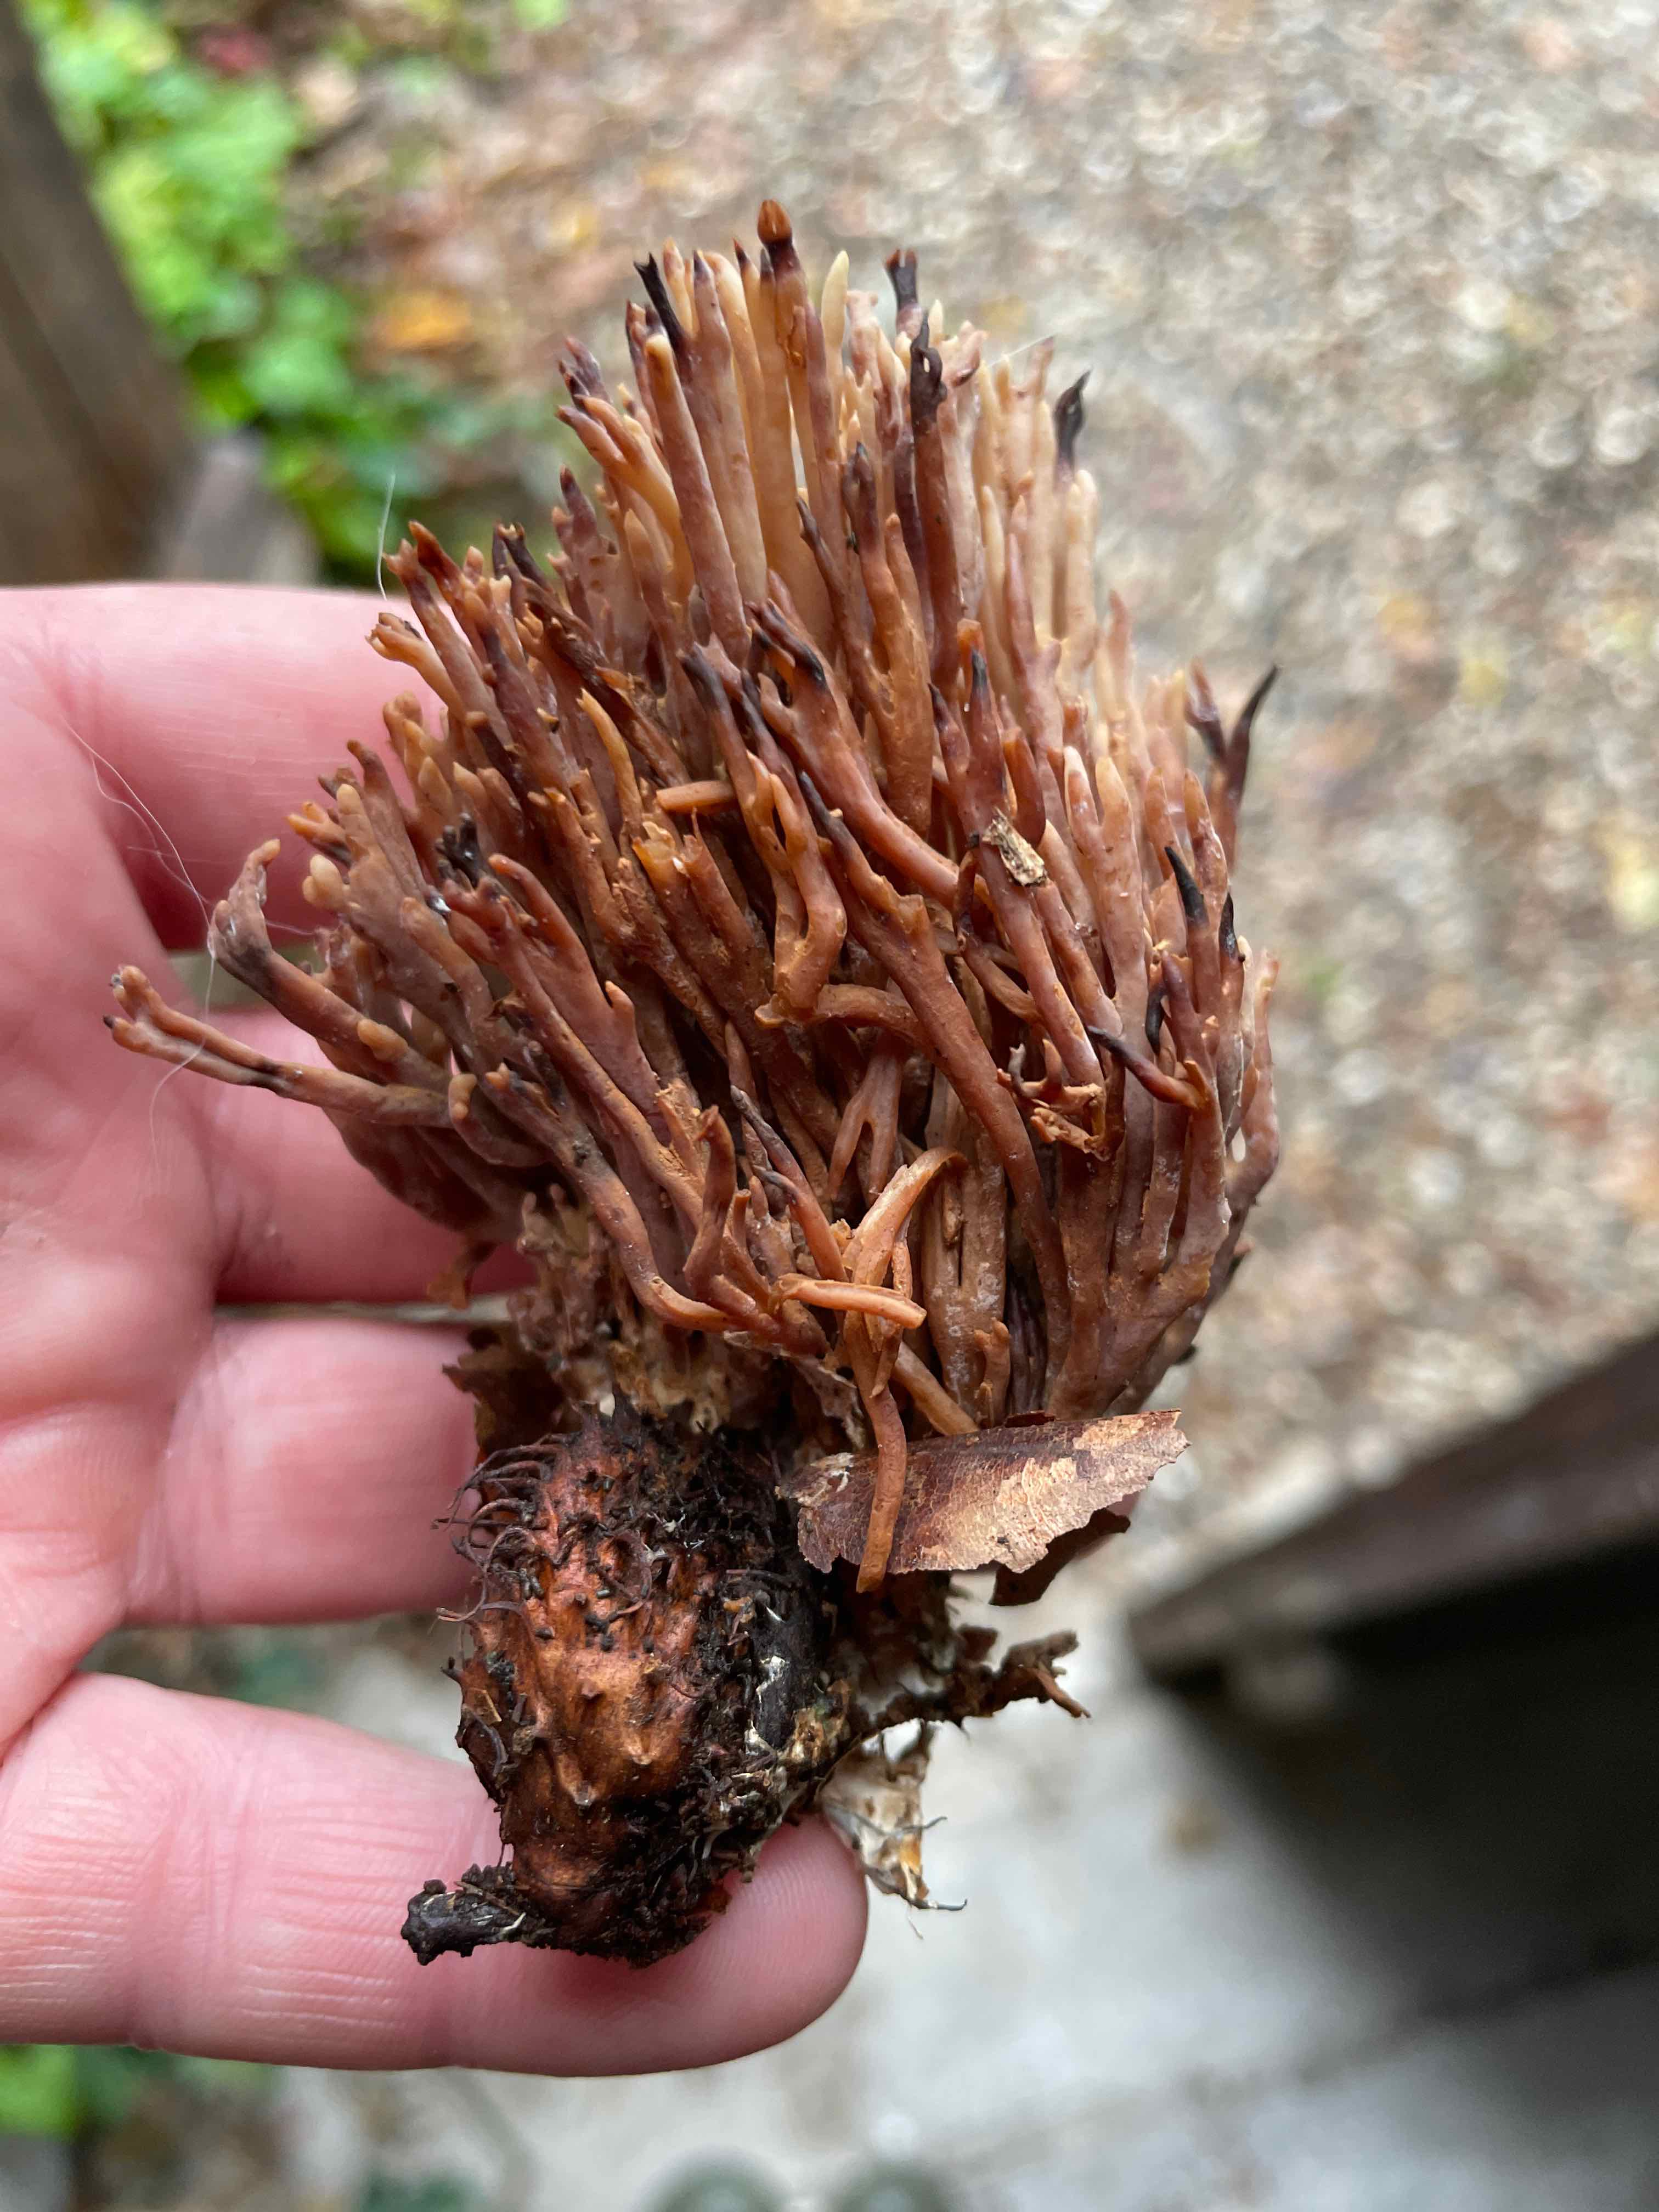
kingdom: Fungi
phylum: Basidiomycota
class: Agaricomycetes
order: Gomphales
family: Gomphaceae
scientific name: Gomphaceae
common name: køllekantarelfamilien
